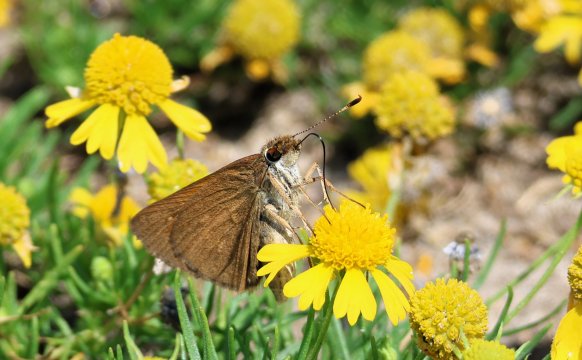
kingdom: Animalia
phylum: Arthropoda
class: Insecta
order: Lepidoptera
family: Hesperiidae
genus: Poanes
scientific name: Poanes viator
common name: Broad-winged Skipper
